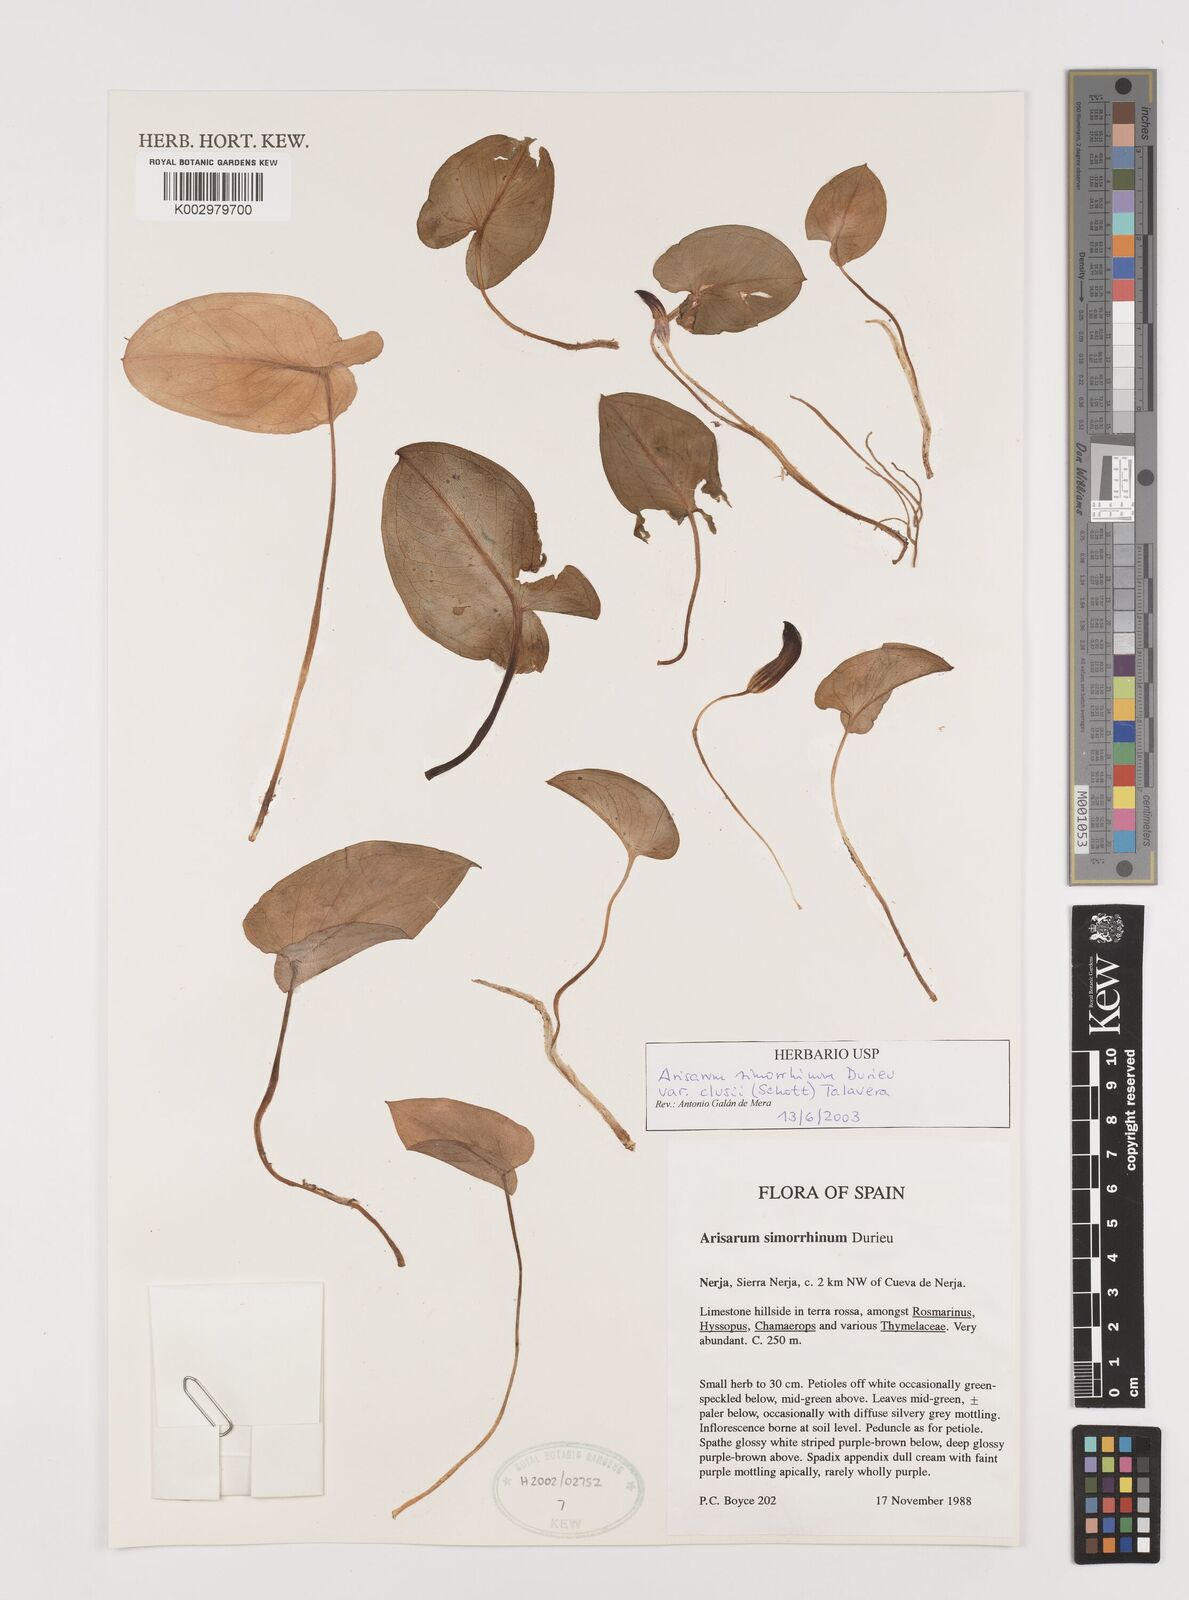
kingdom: Plantae
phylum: Tracheophyta
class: Liliopsida
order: Alismatales
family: Araceae
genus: Arisarum
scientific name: Arisarum simorrhinum
